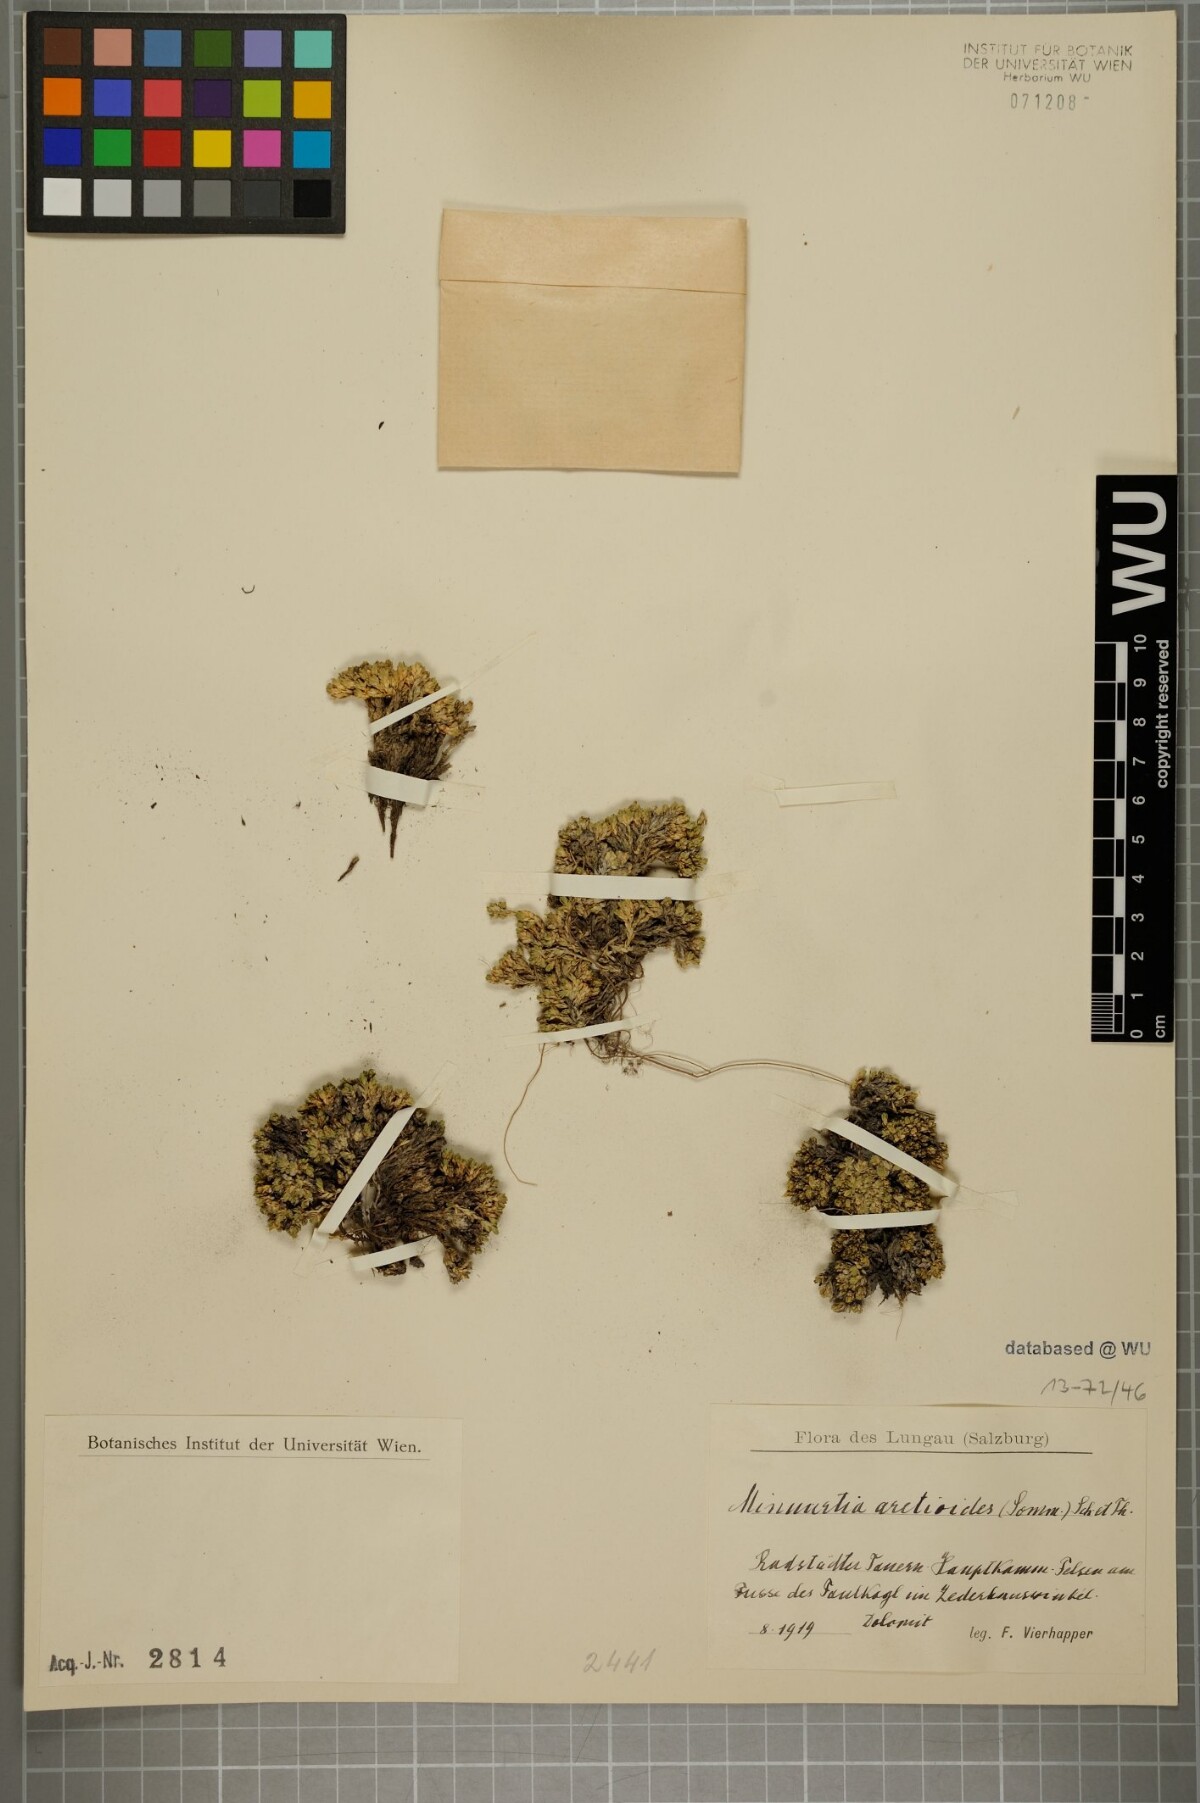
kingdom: Plantae
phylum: Tracheophyta
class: Magnoliopsida
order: Caryophyllales
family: Caryophyllaceae
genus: Facchinia
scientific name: Facchinia cherlerioides
